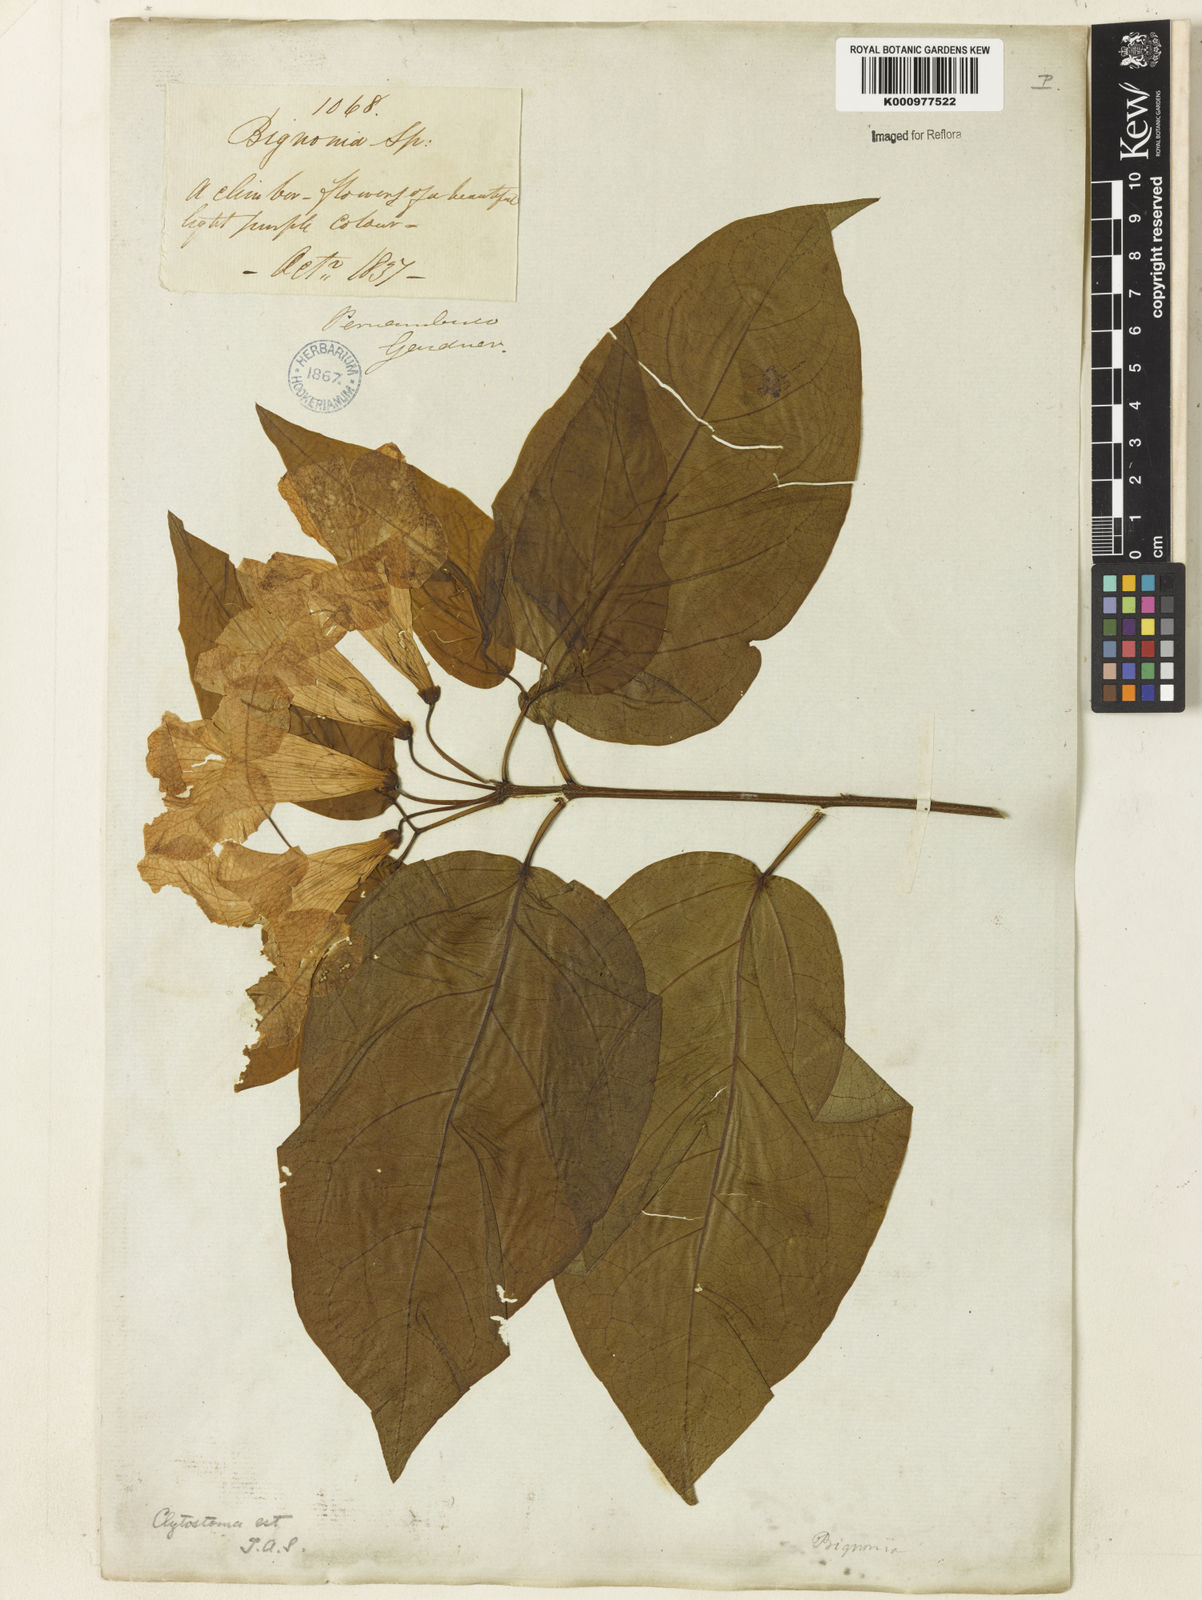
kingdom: Plantae
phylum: Tracheophyta
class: Magnoliopsida
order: Lamiales
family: Bignoniaceae
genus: Bignonia
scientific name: Bignonia binata
